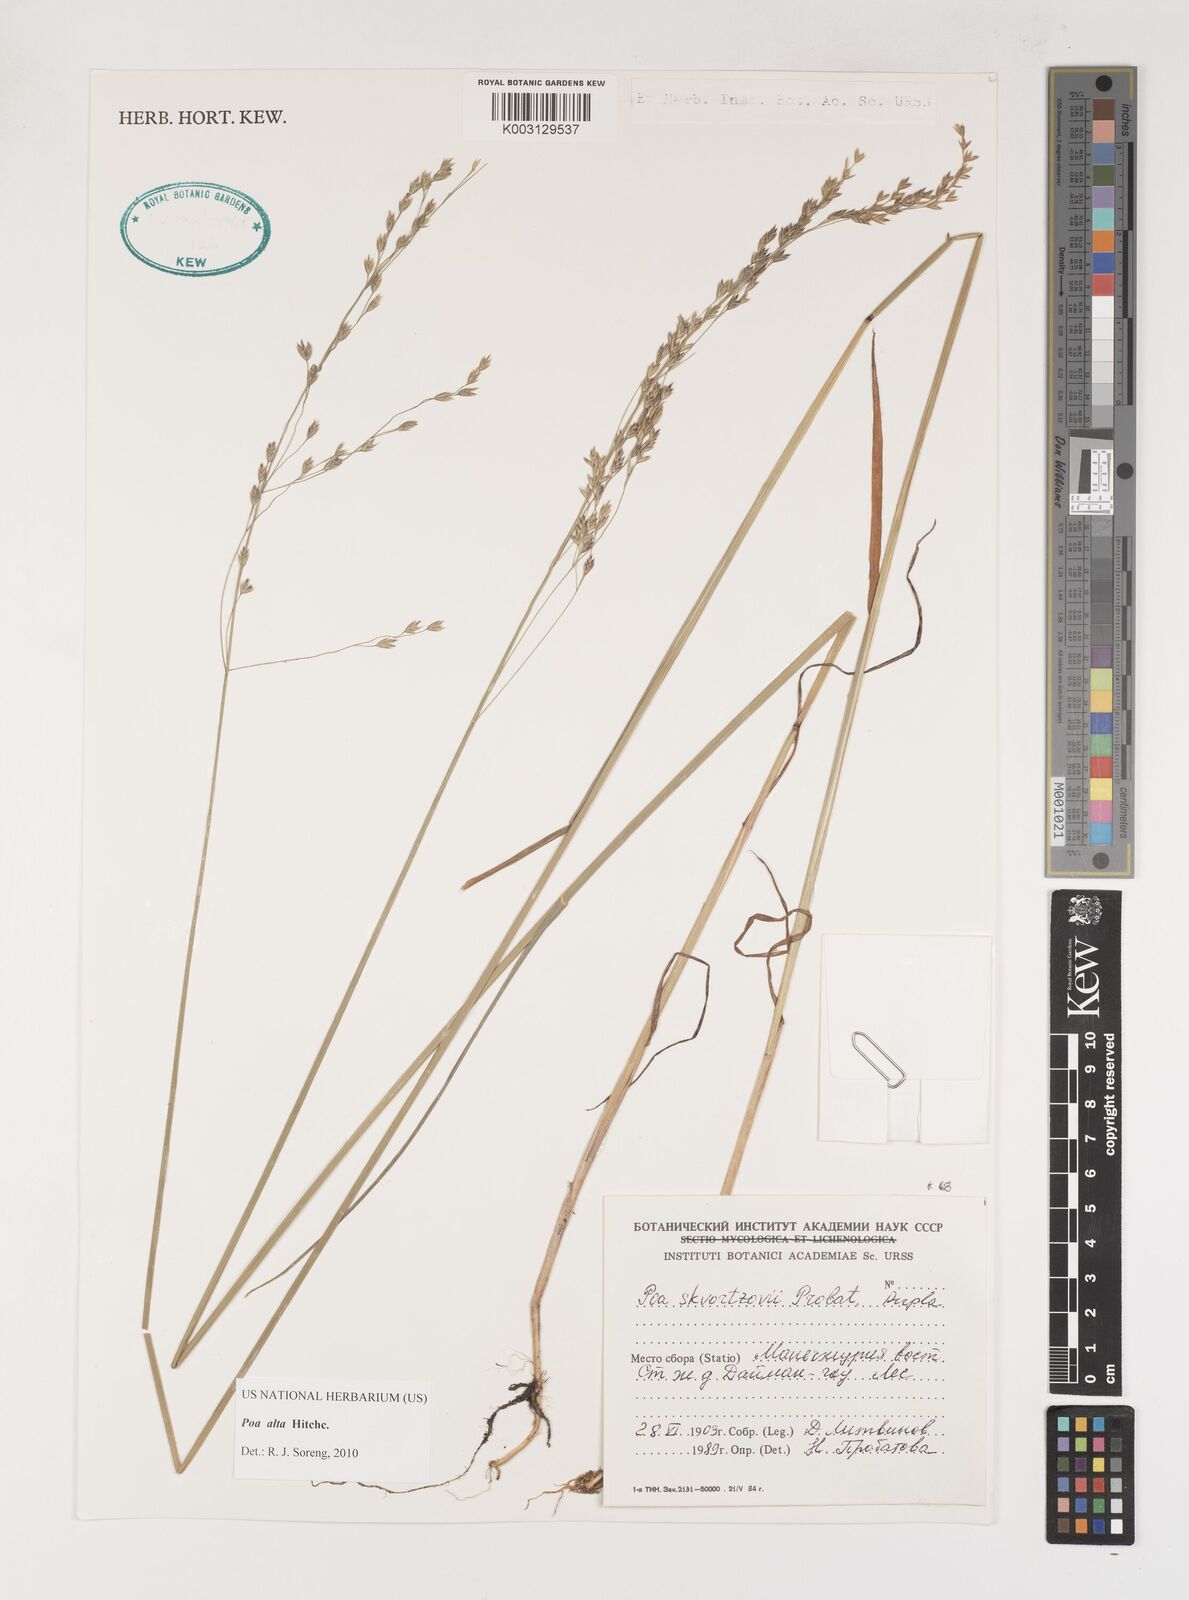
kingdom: Plantae
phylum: Tracheophyta
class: Liliopsida
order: Poales
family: Poaceae
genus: Poa
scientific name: Poa alta
